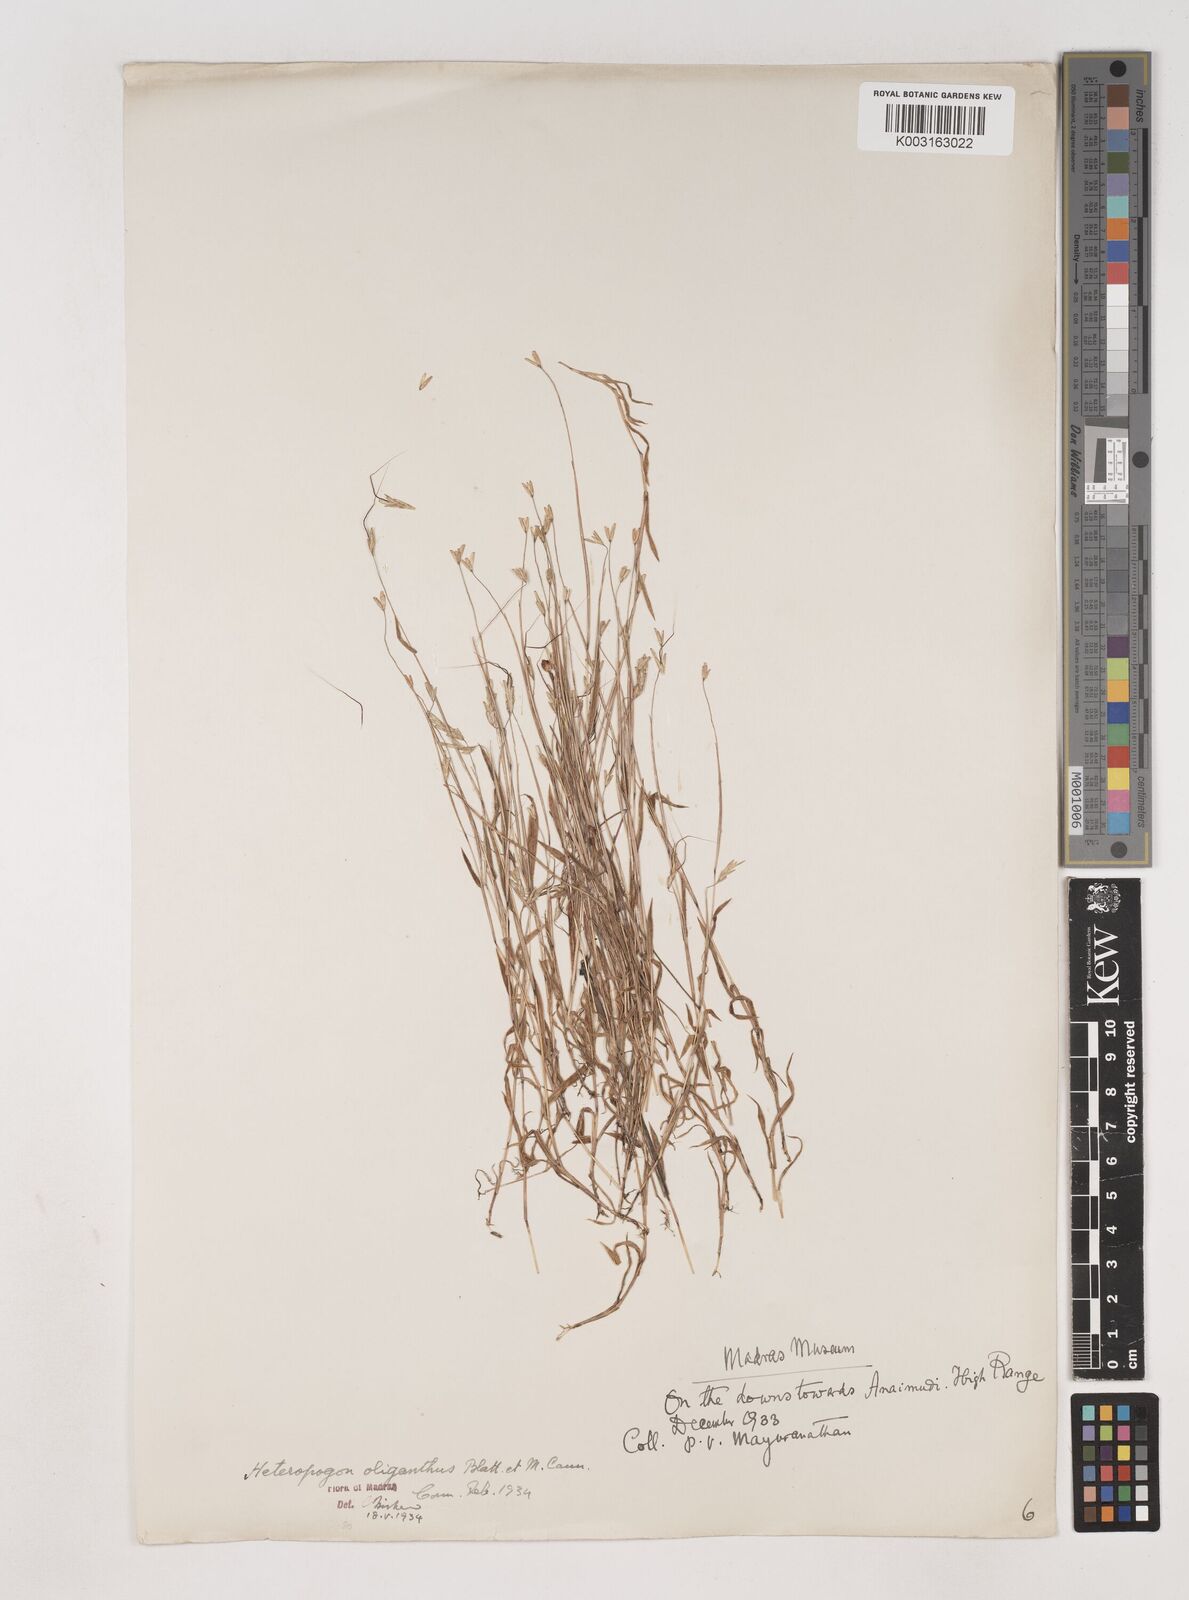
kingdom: Plantae
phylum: Tracheophyta
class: Liliopsida
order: Poales
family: Poaceae
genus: Euclasta
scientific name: Euclasta oligantha
